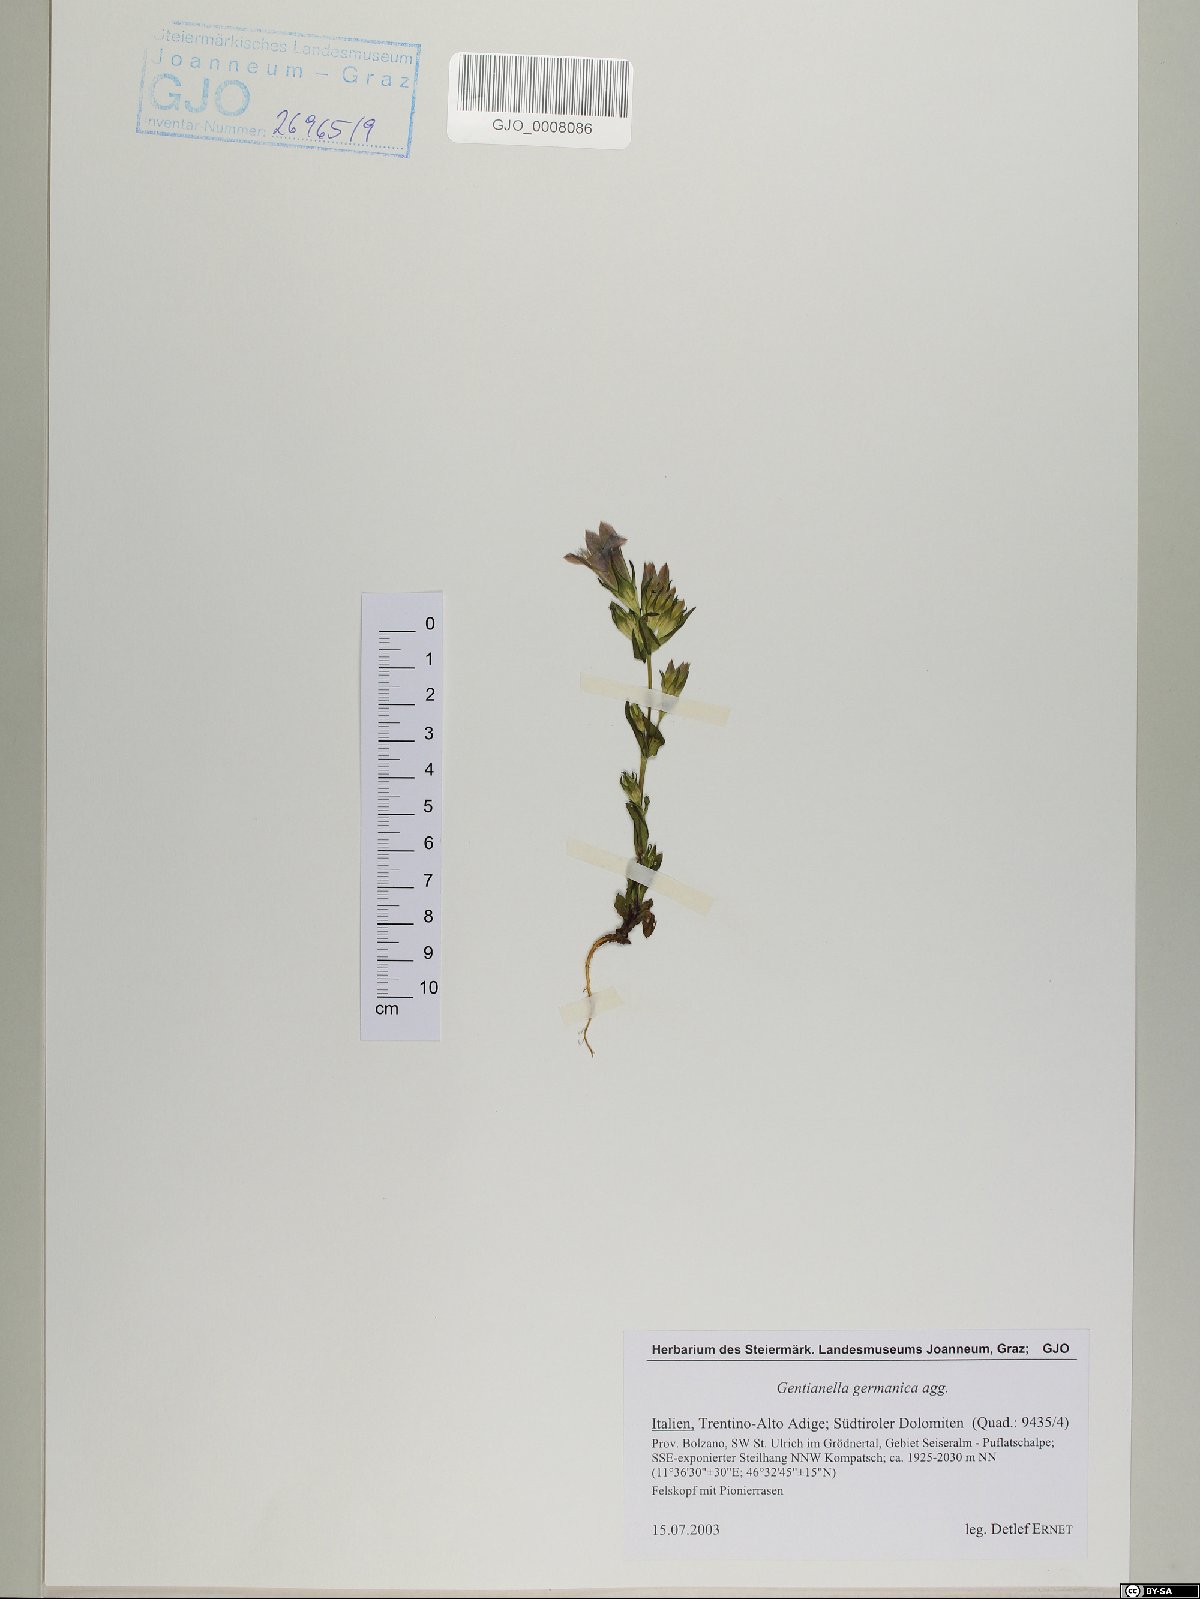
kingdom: Plantae
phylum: Tracheophyta
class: Magnoliopsida
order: Fabales
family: Fabaceae
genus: Astragalus
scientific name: Astragalus penduliflorus
